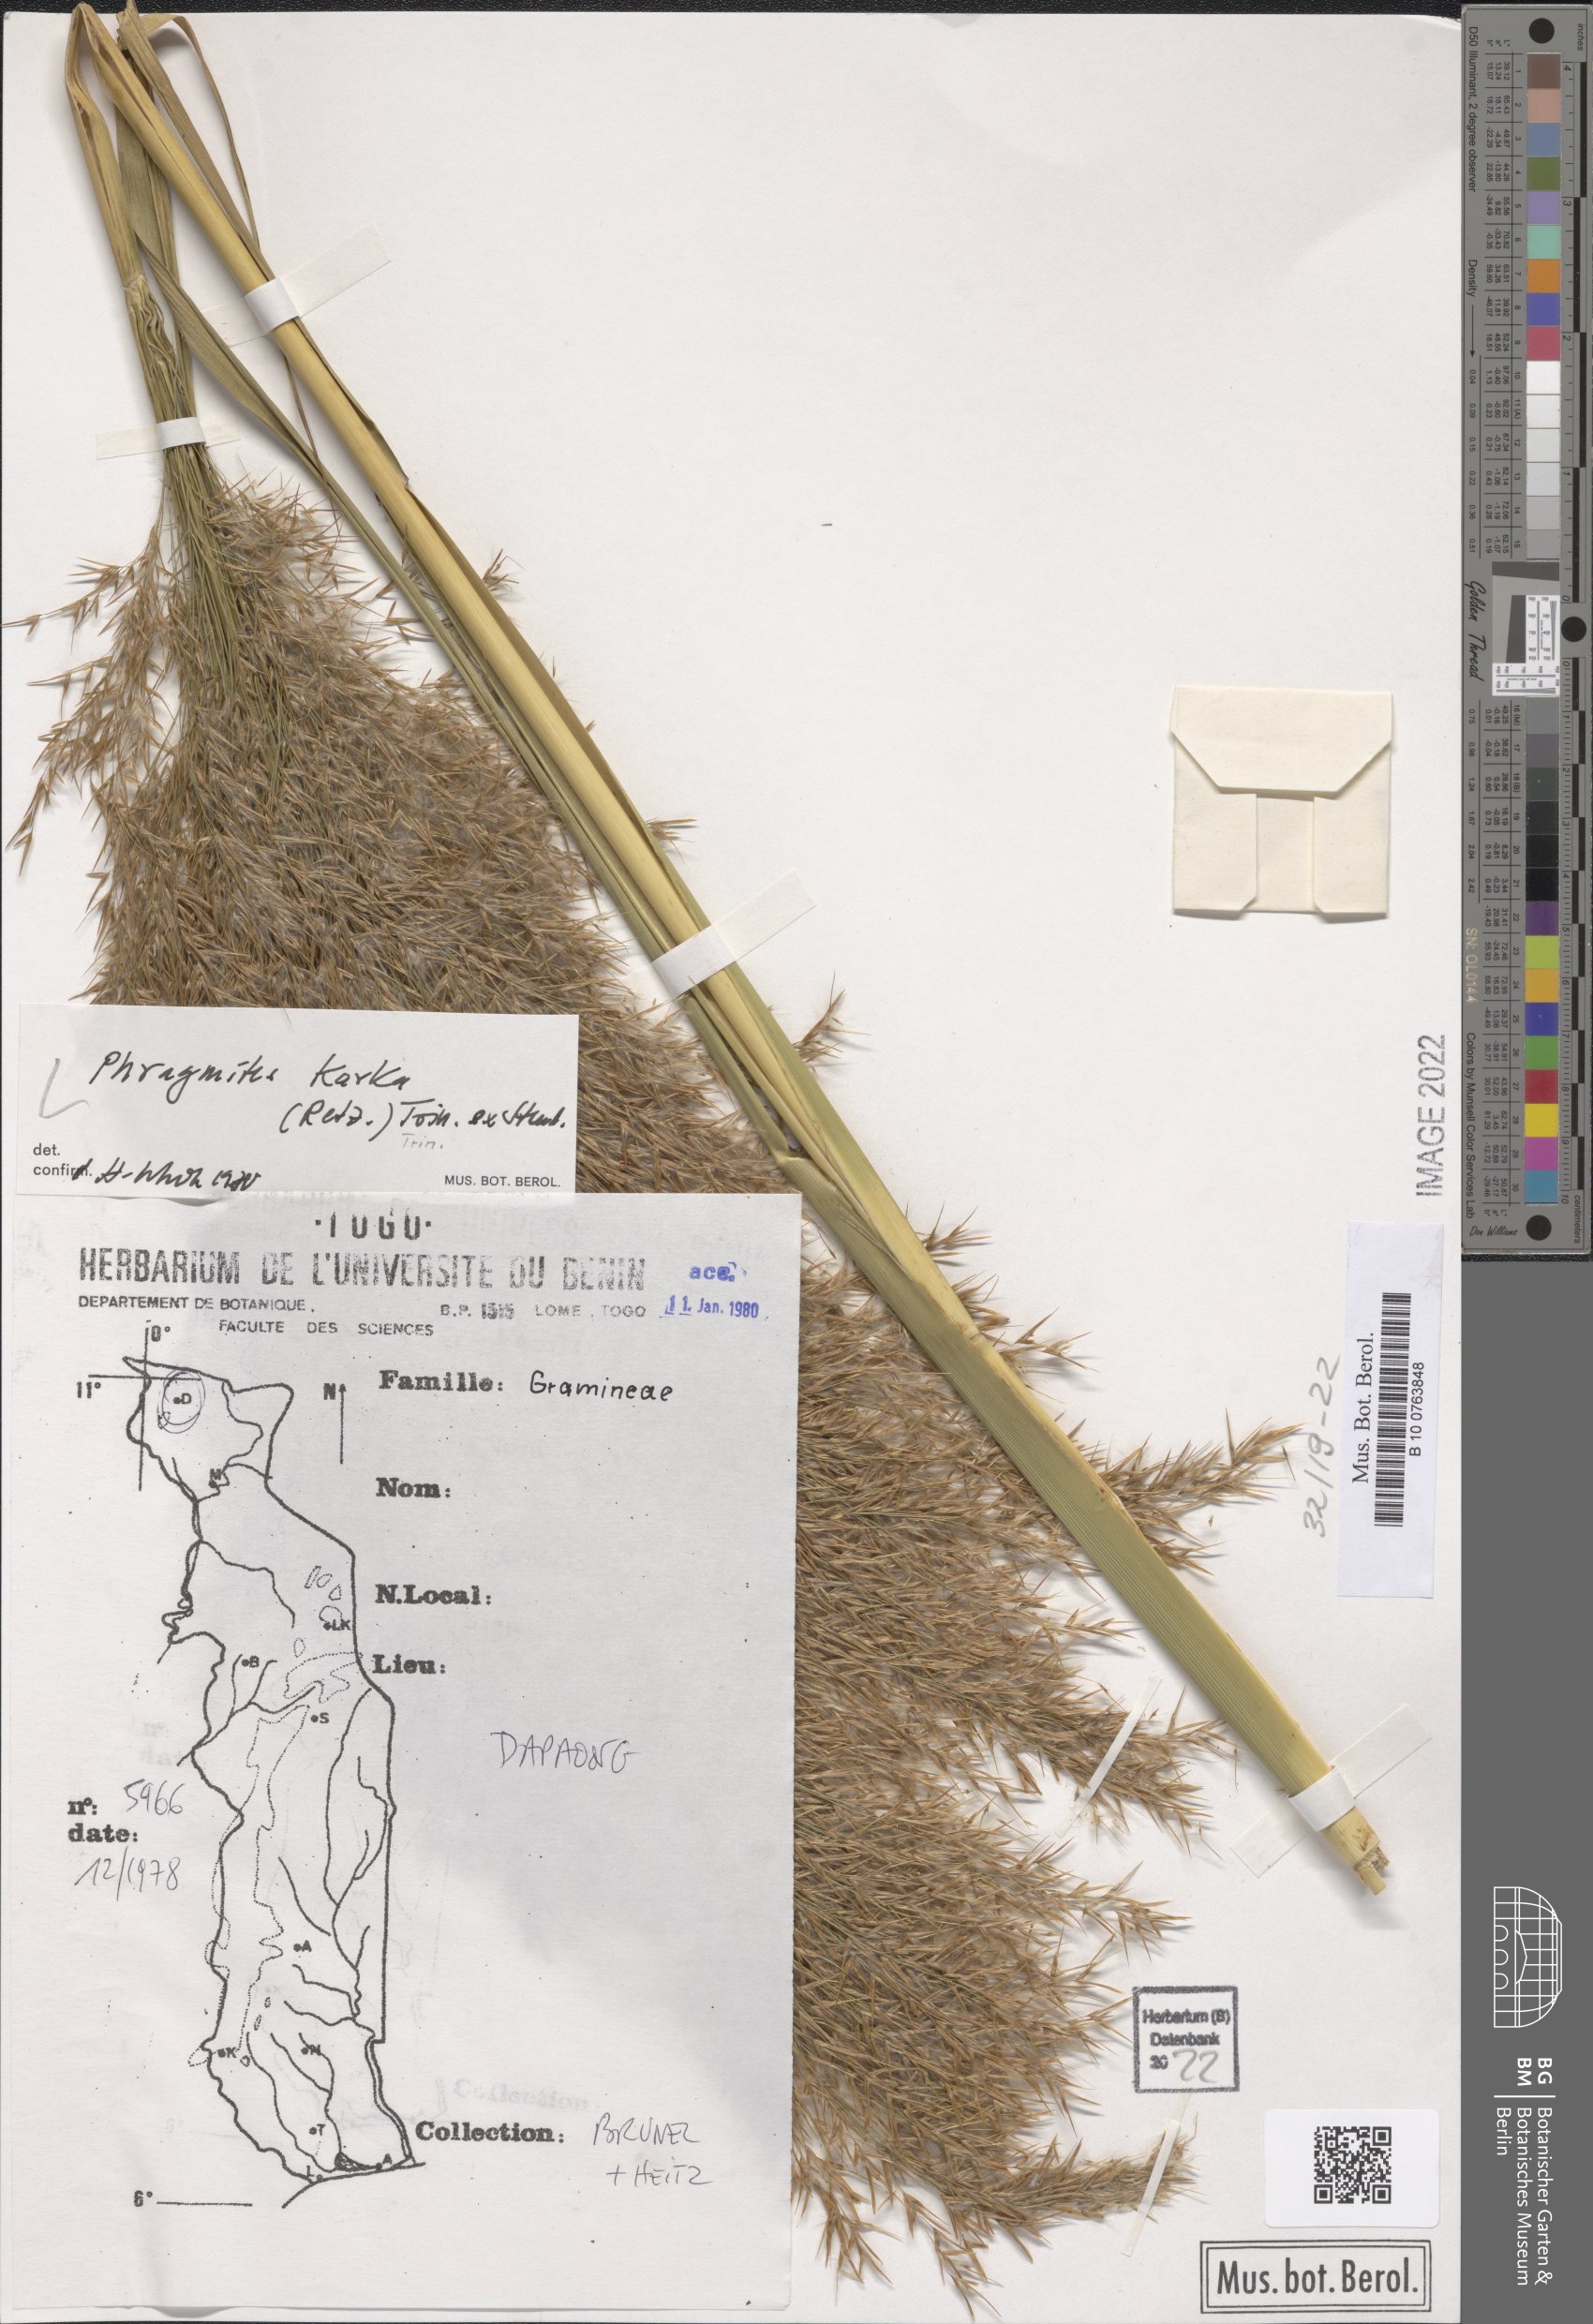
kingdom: Plantae
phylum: Tracheophyta
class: Liliopsida
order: Poales
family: Poaceae
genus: Phragmites
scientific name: Phragmites karka
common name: Tropical reed
